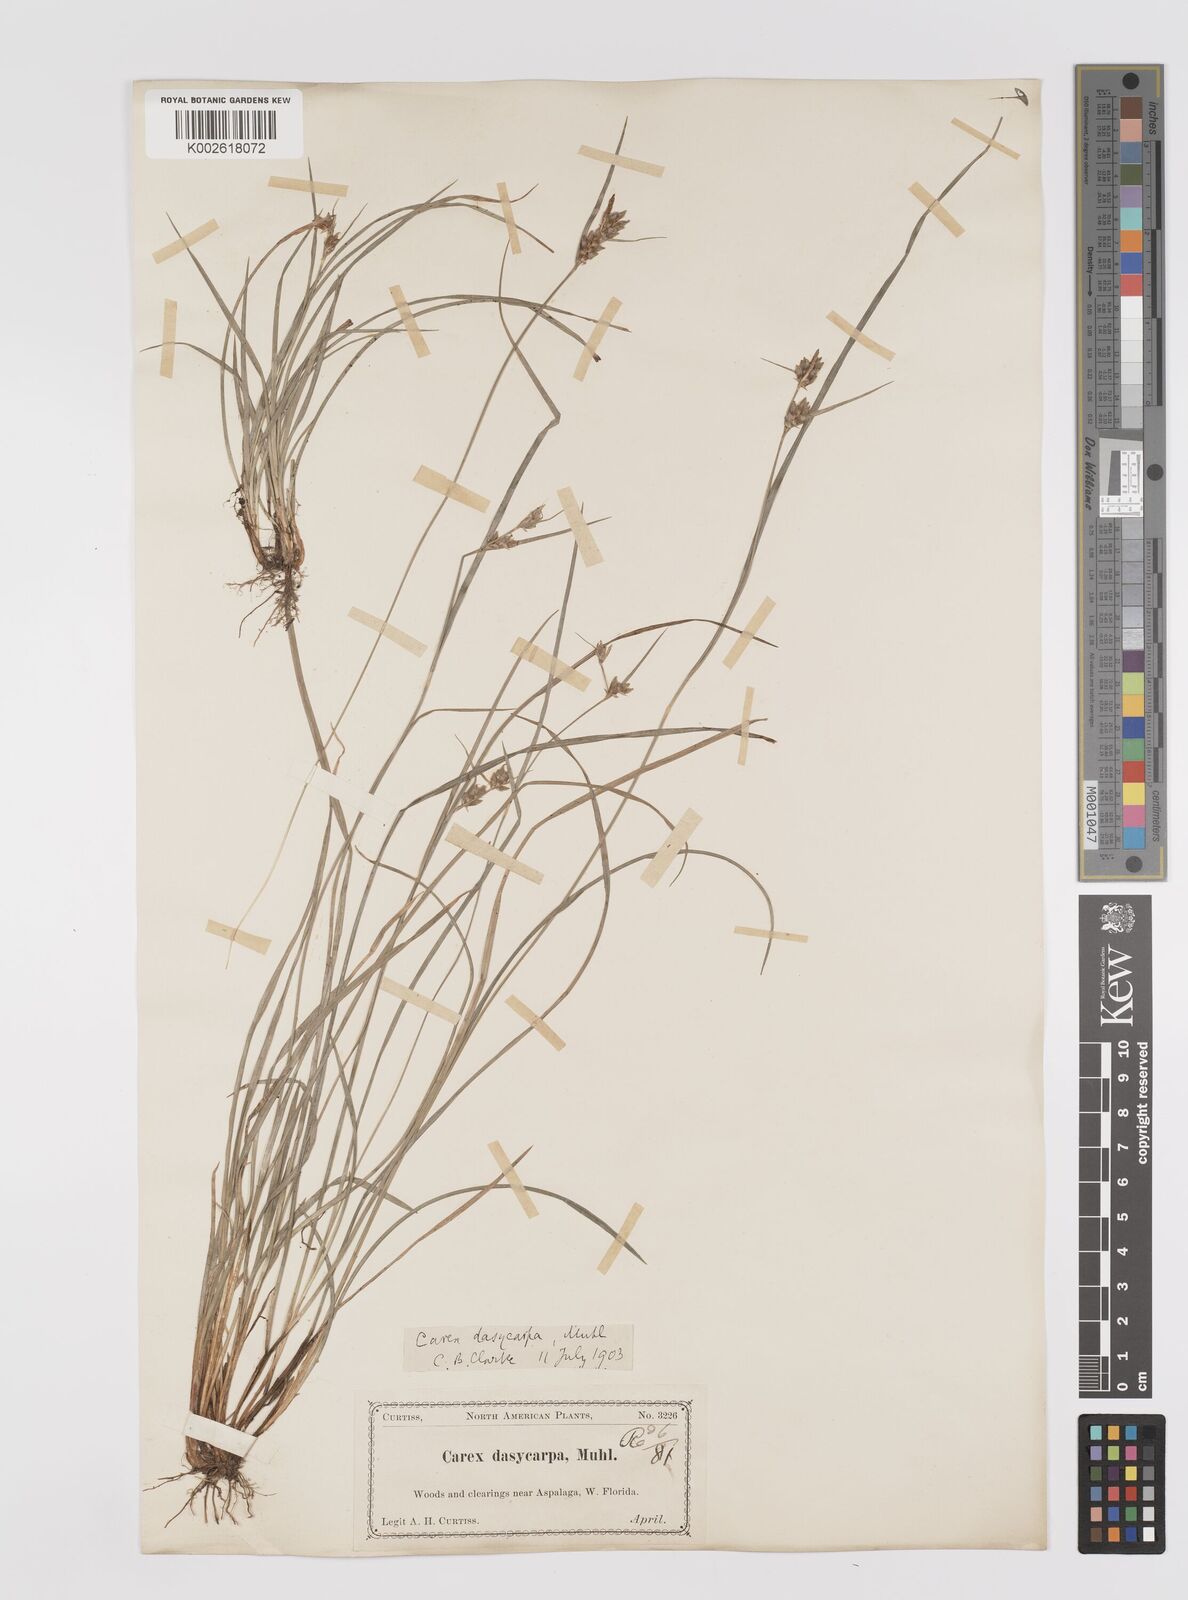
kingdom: Plantae
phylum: Tracheophyta
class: Liliopsida
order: Poales
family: Cyperaceae
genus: Carex
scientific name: Carex dasycarpa
